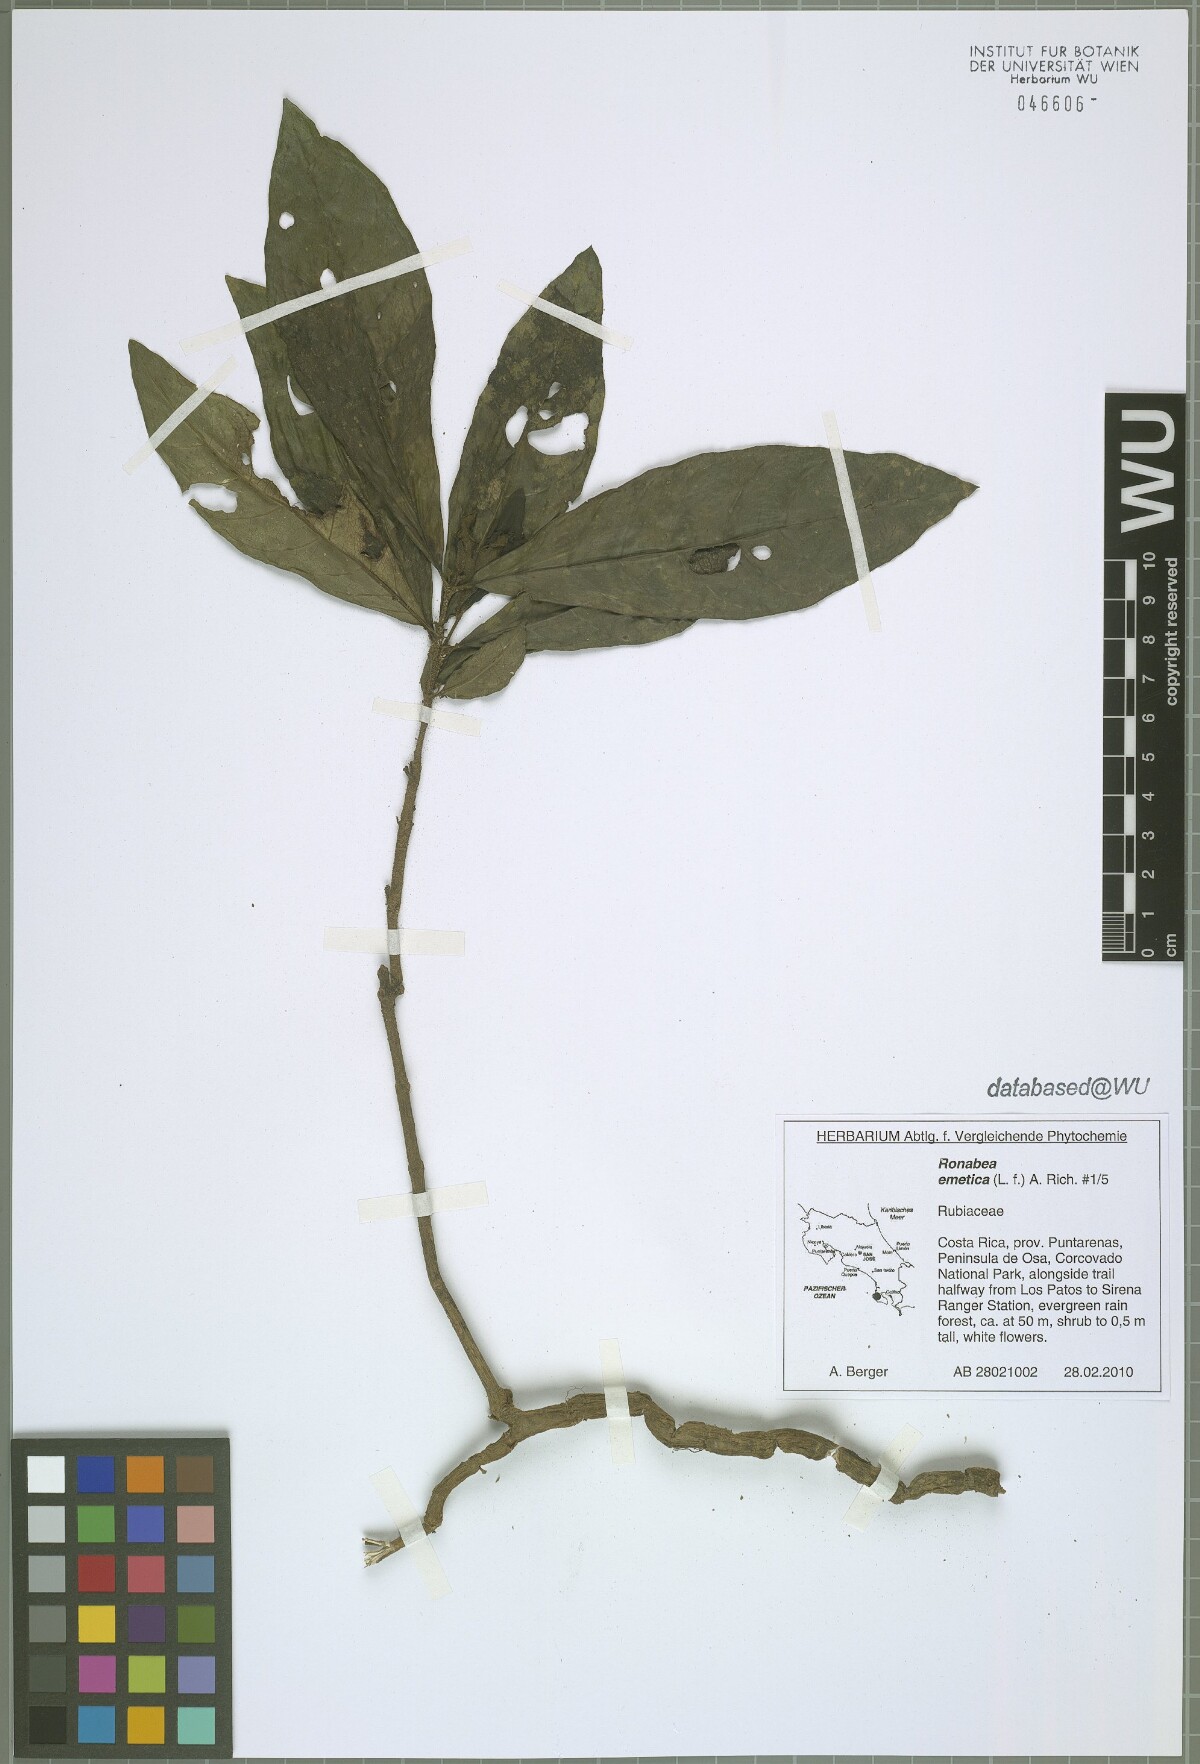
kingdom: Plantae
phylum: Tracheophyta
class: Magnoliopsida
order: Gentianales
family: Rubiaceae
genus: Ronabea
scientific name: Ronabea emetica
